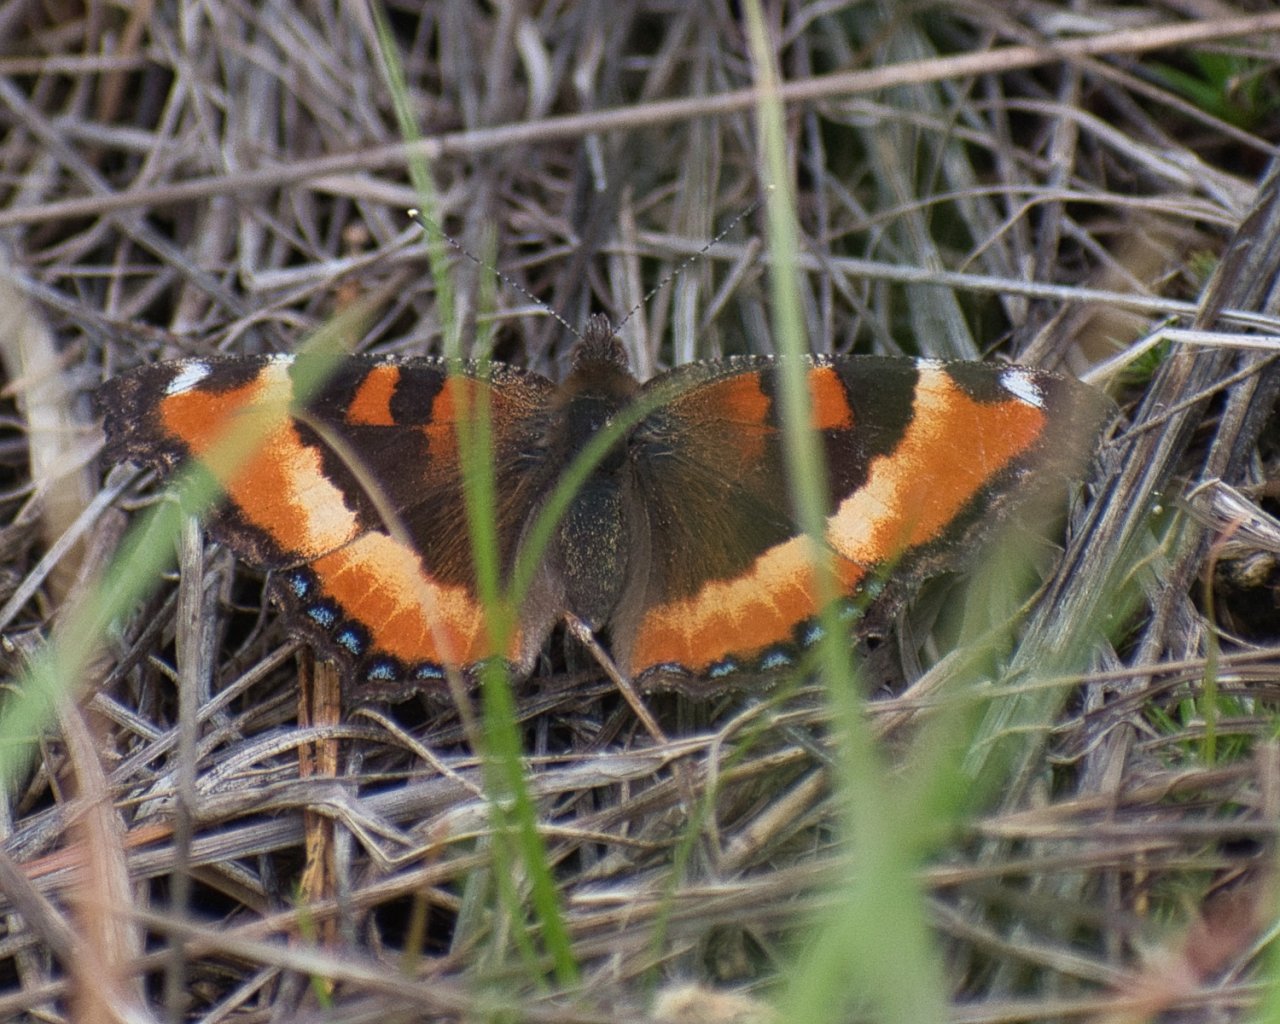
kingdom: Animalia
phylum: Arthropoda
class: Insecta
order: Lepidoptera
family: Nymphalidae
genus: Aglais
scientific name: Aglais milberti
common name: Milbert's Tortoiseshell
